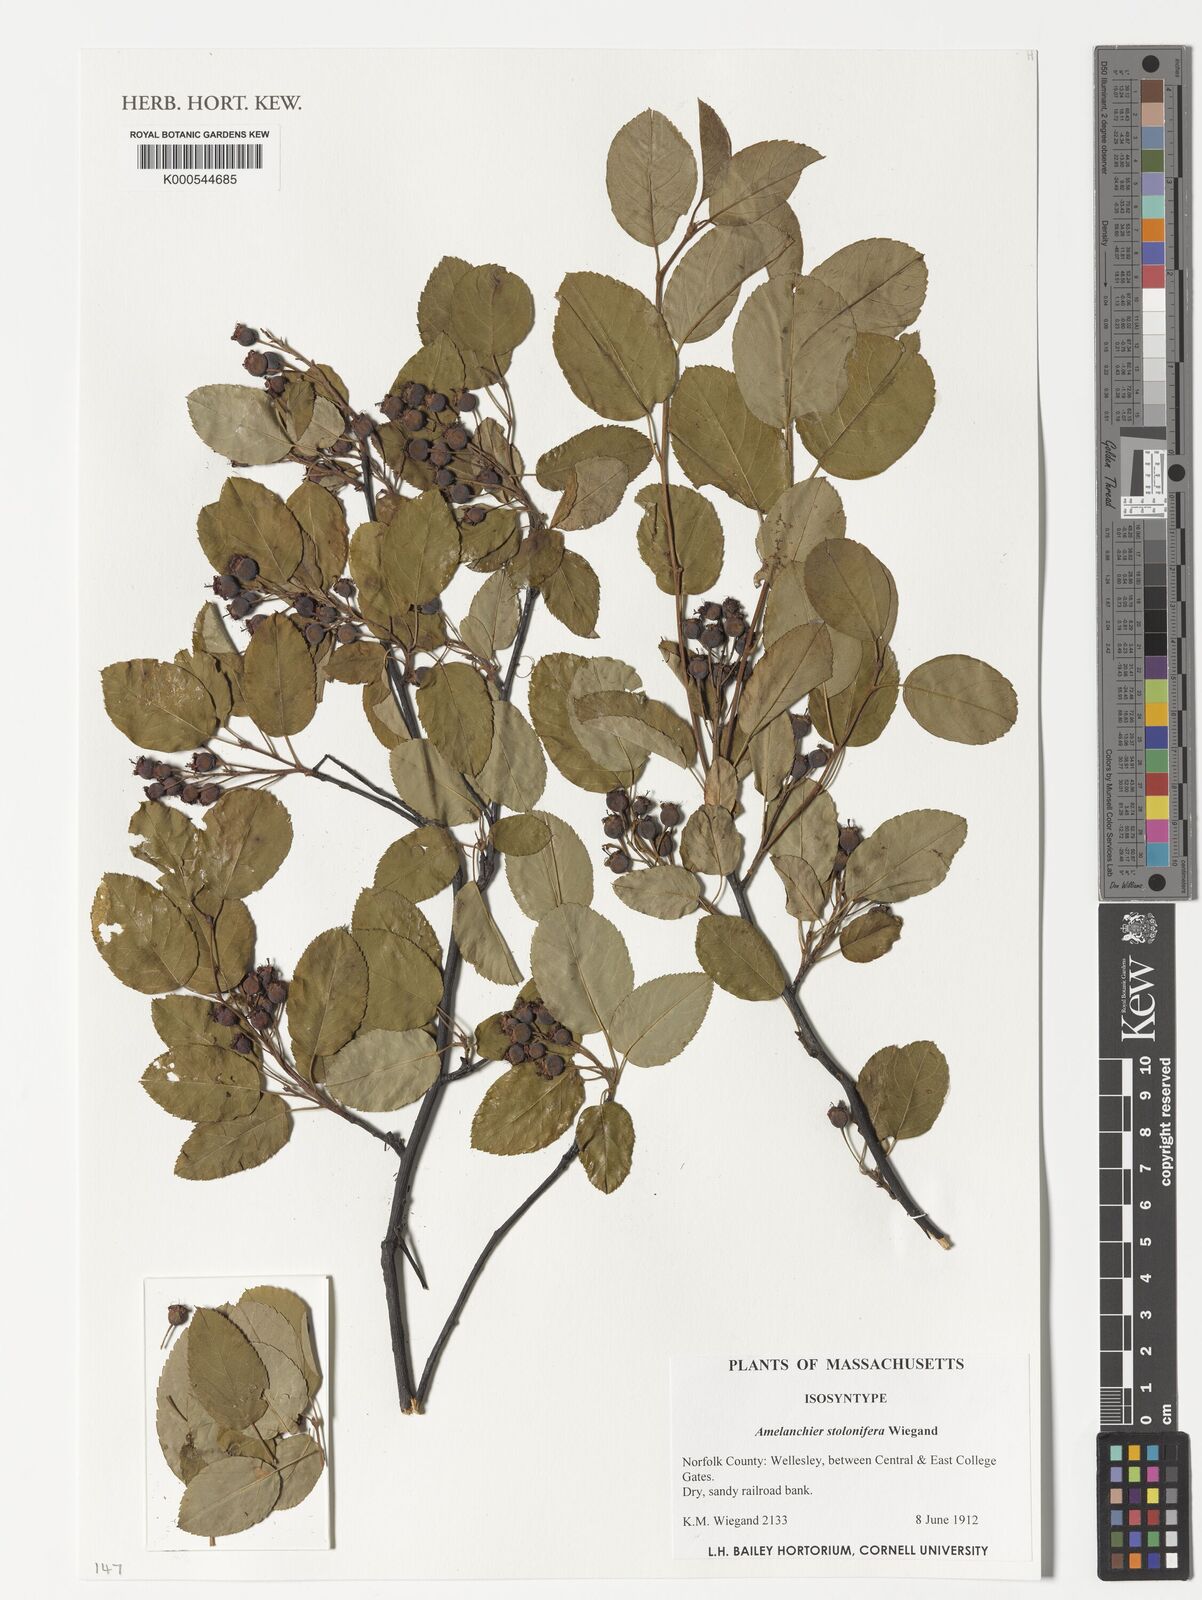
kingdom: Plantae
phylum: Tracheophyta
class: Magnoliopsida
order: Rosales
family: Rosaceae
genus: Amelanchier
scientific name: Amelanchier stolonifera
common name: Running serviceberry
